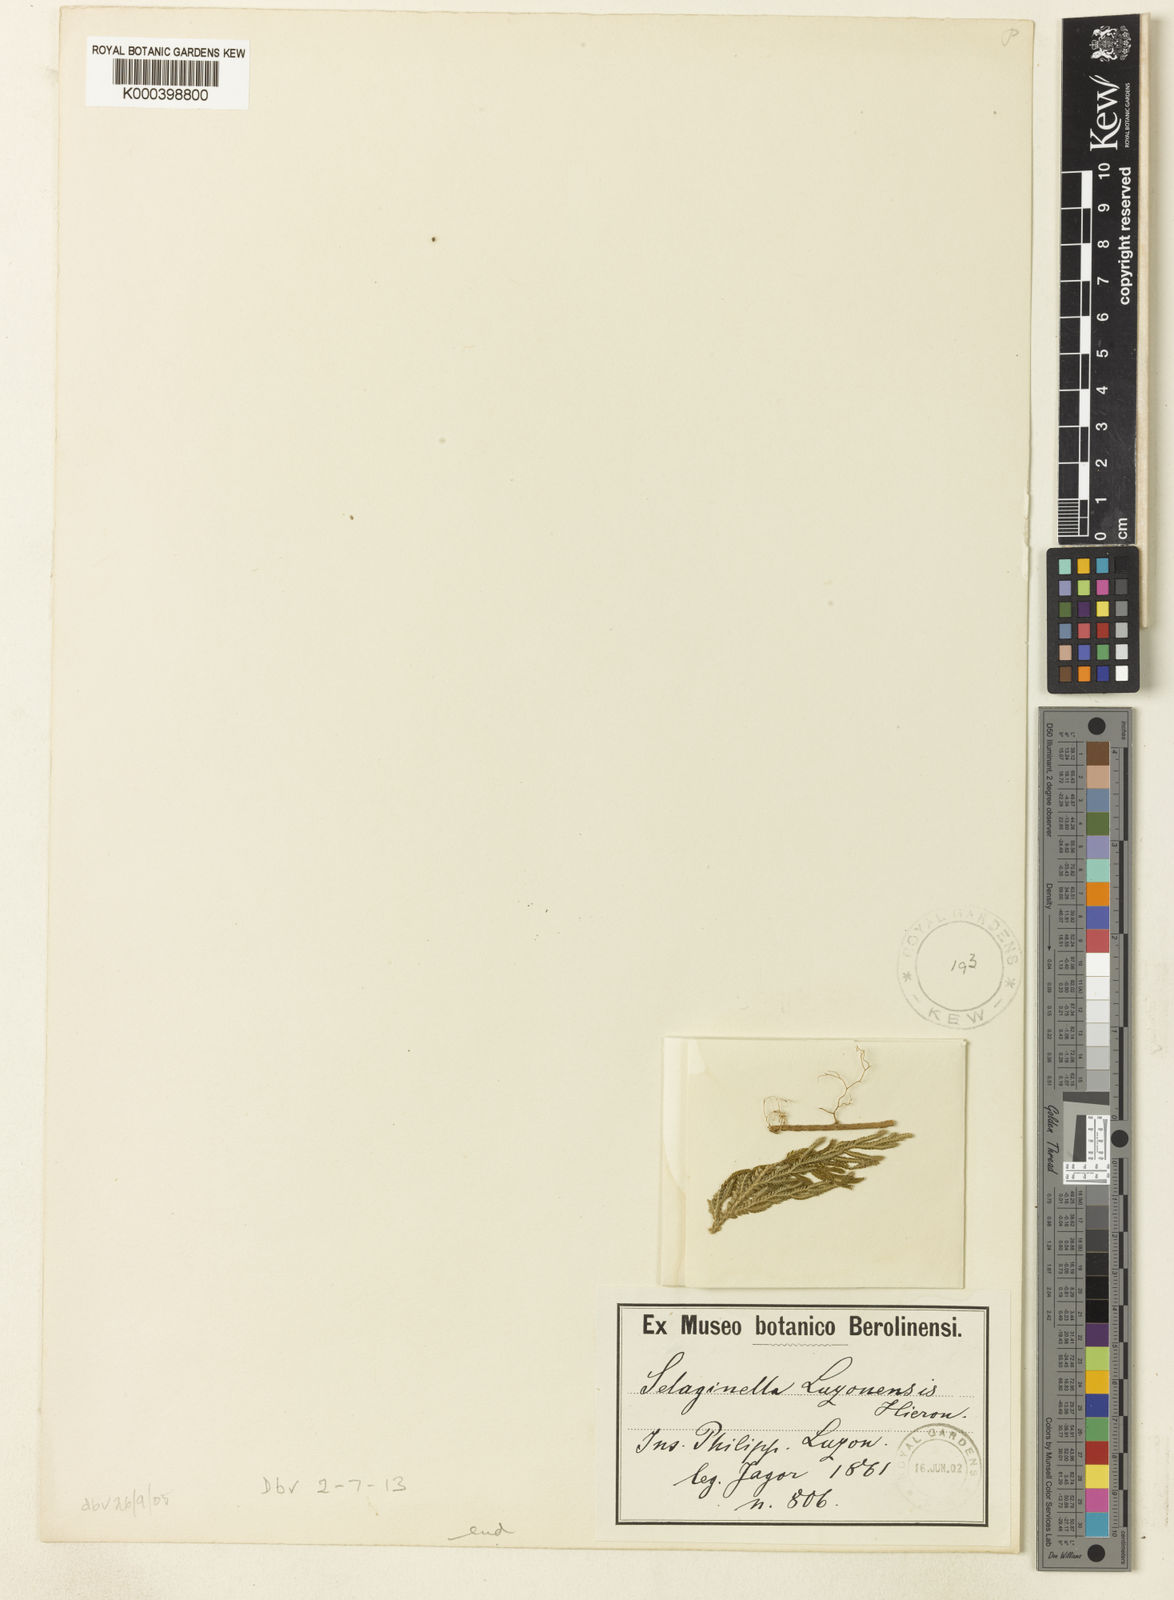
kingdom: Plantae
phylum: Tracheophyta
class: Lycopodiopsida
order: Selaginellales
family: Selaginellaceae
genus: Selaginella
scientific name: Selaginella luzonensis
